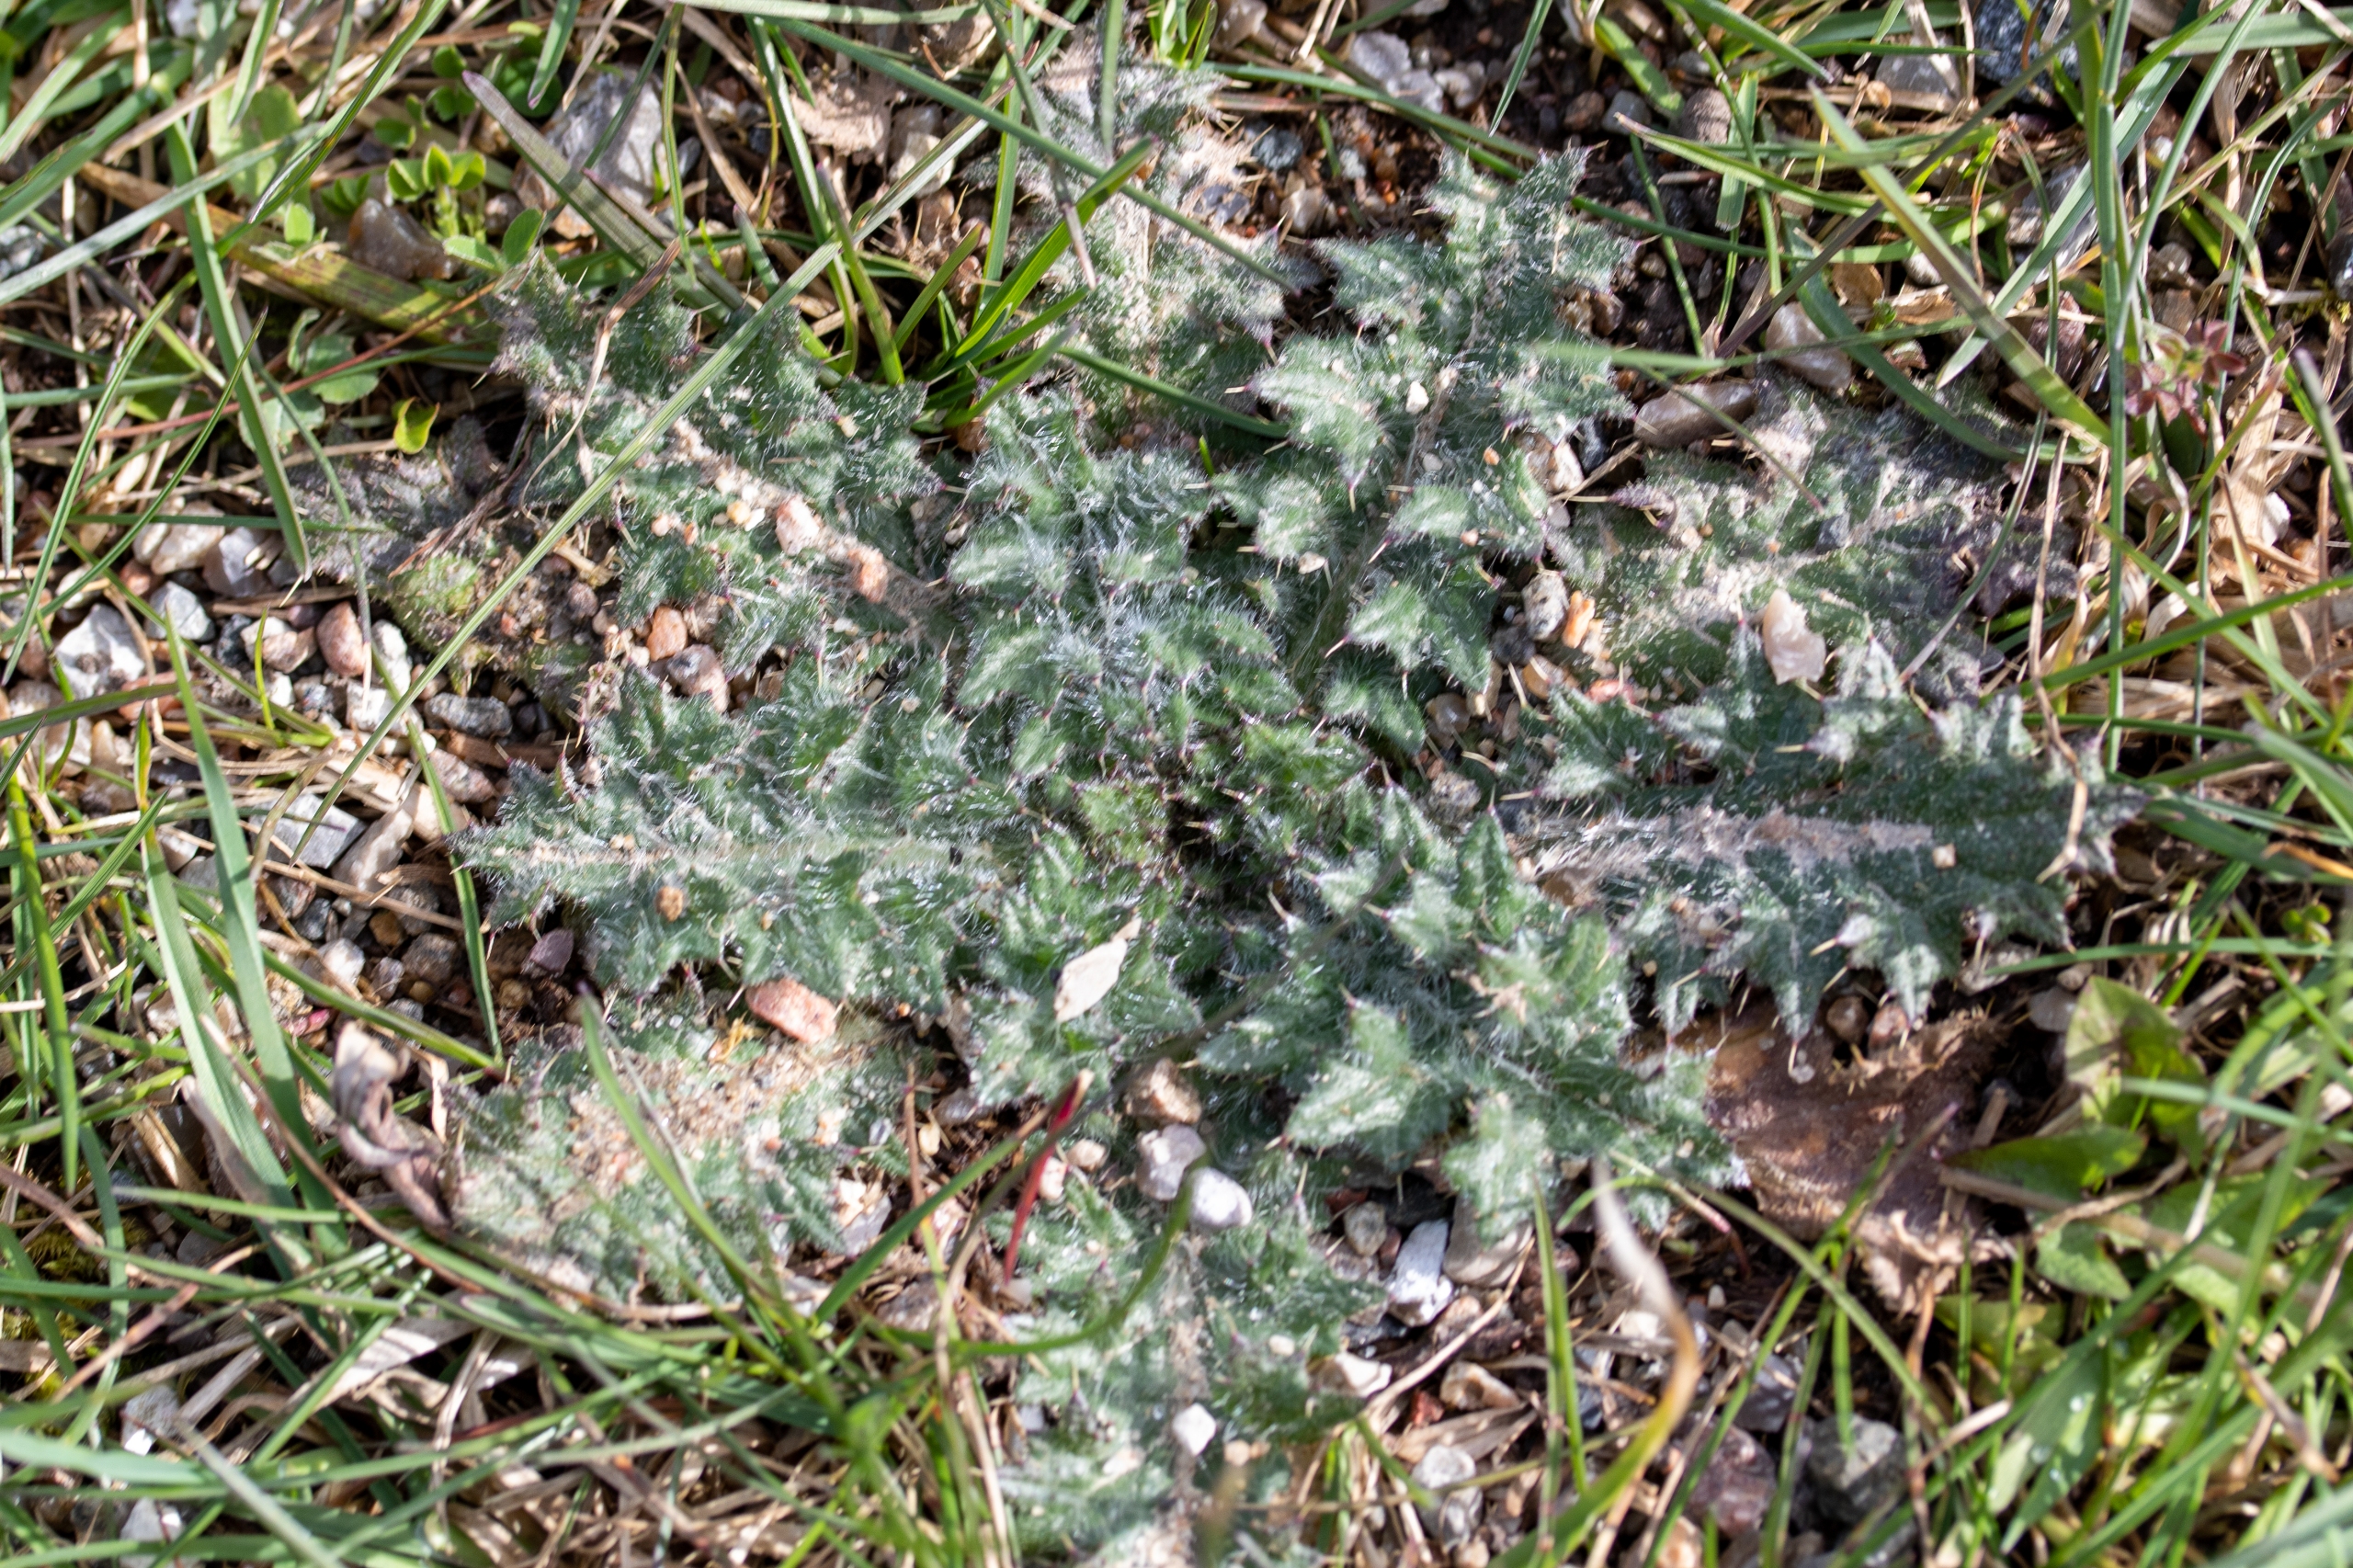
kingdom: Plantae
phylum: Tracheophyta
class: Magnoliopsida
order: Asterales
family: Asteraceae
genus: Cirsium
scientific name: Cirsium vulgare
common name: Horse-tidsel
